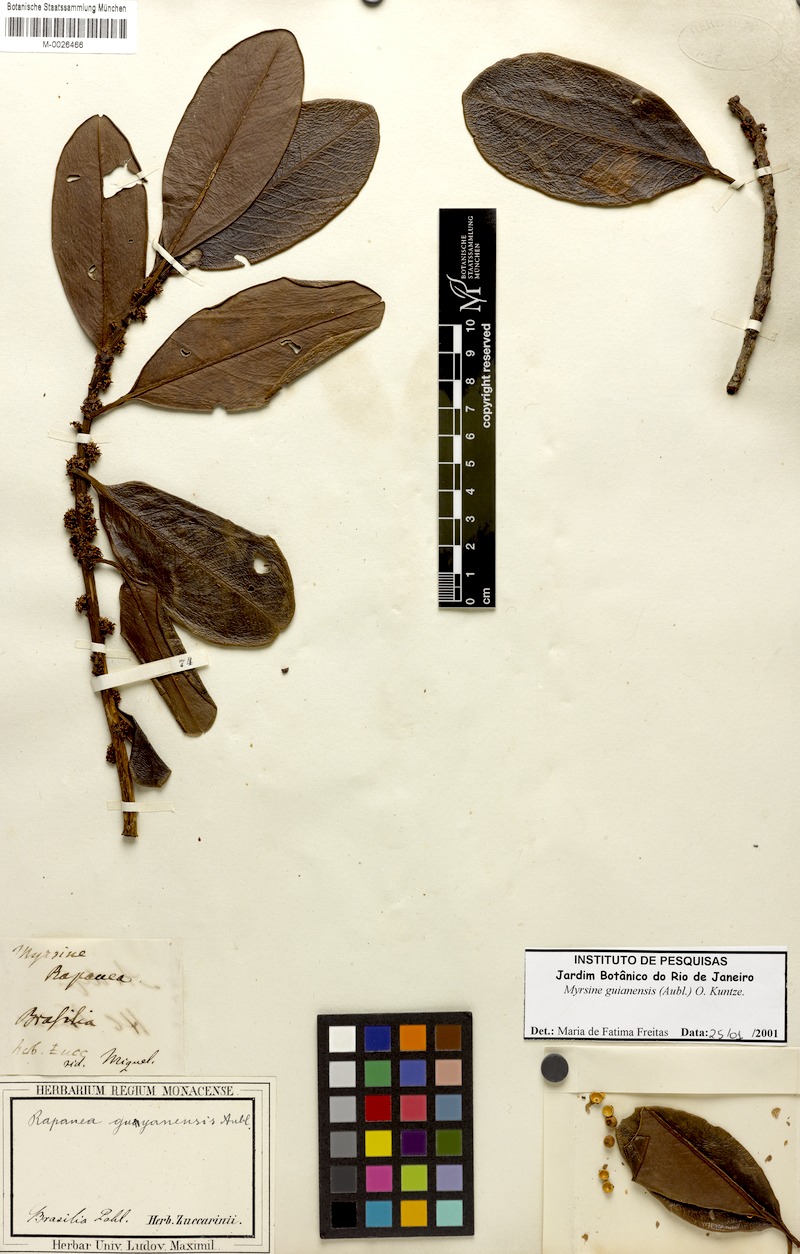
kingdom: Plantae
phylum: Tracheophyta
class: Magnoliopsida
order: Ericales
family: Primulaceae
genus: Myrsine
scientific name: Myrsine guianensis
